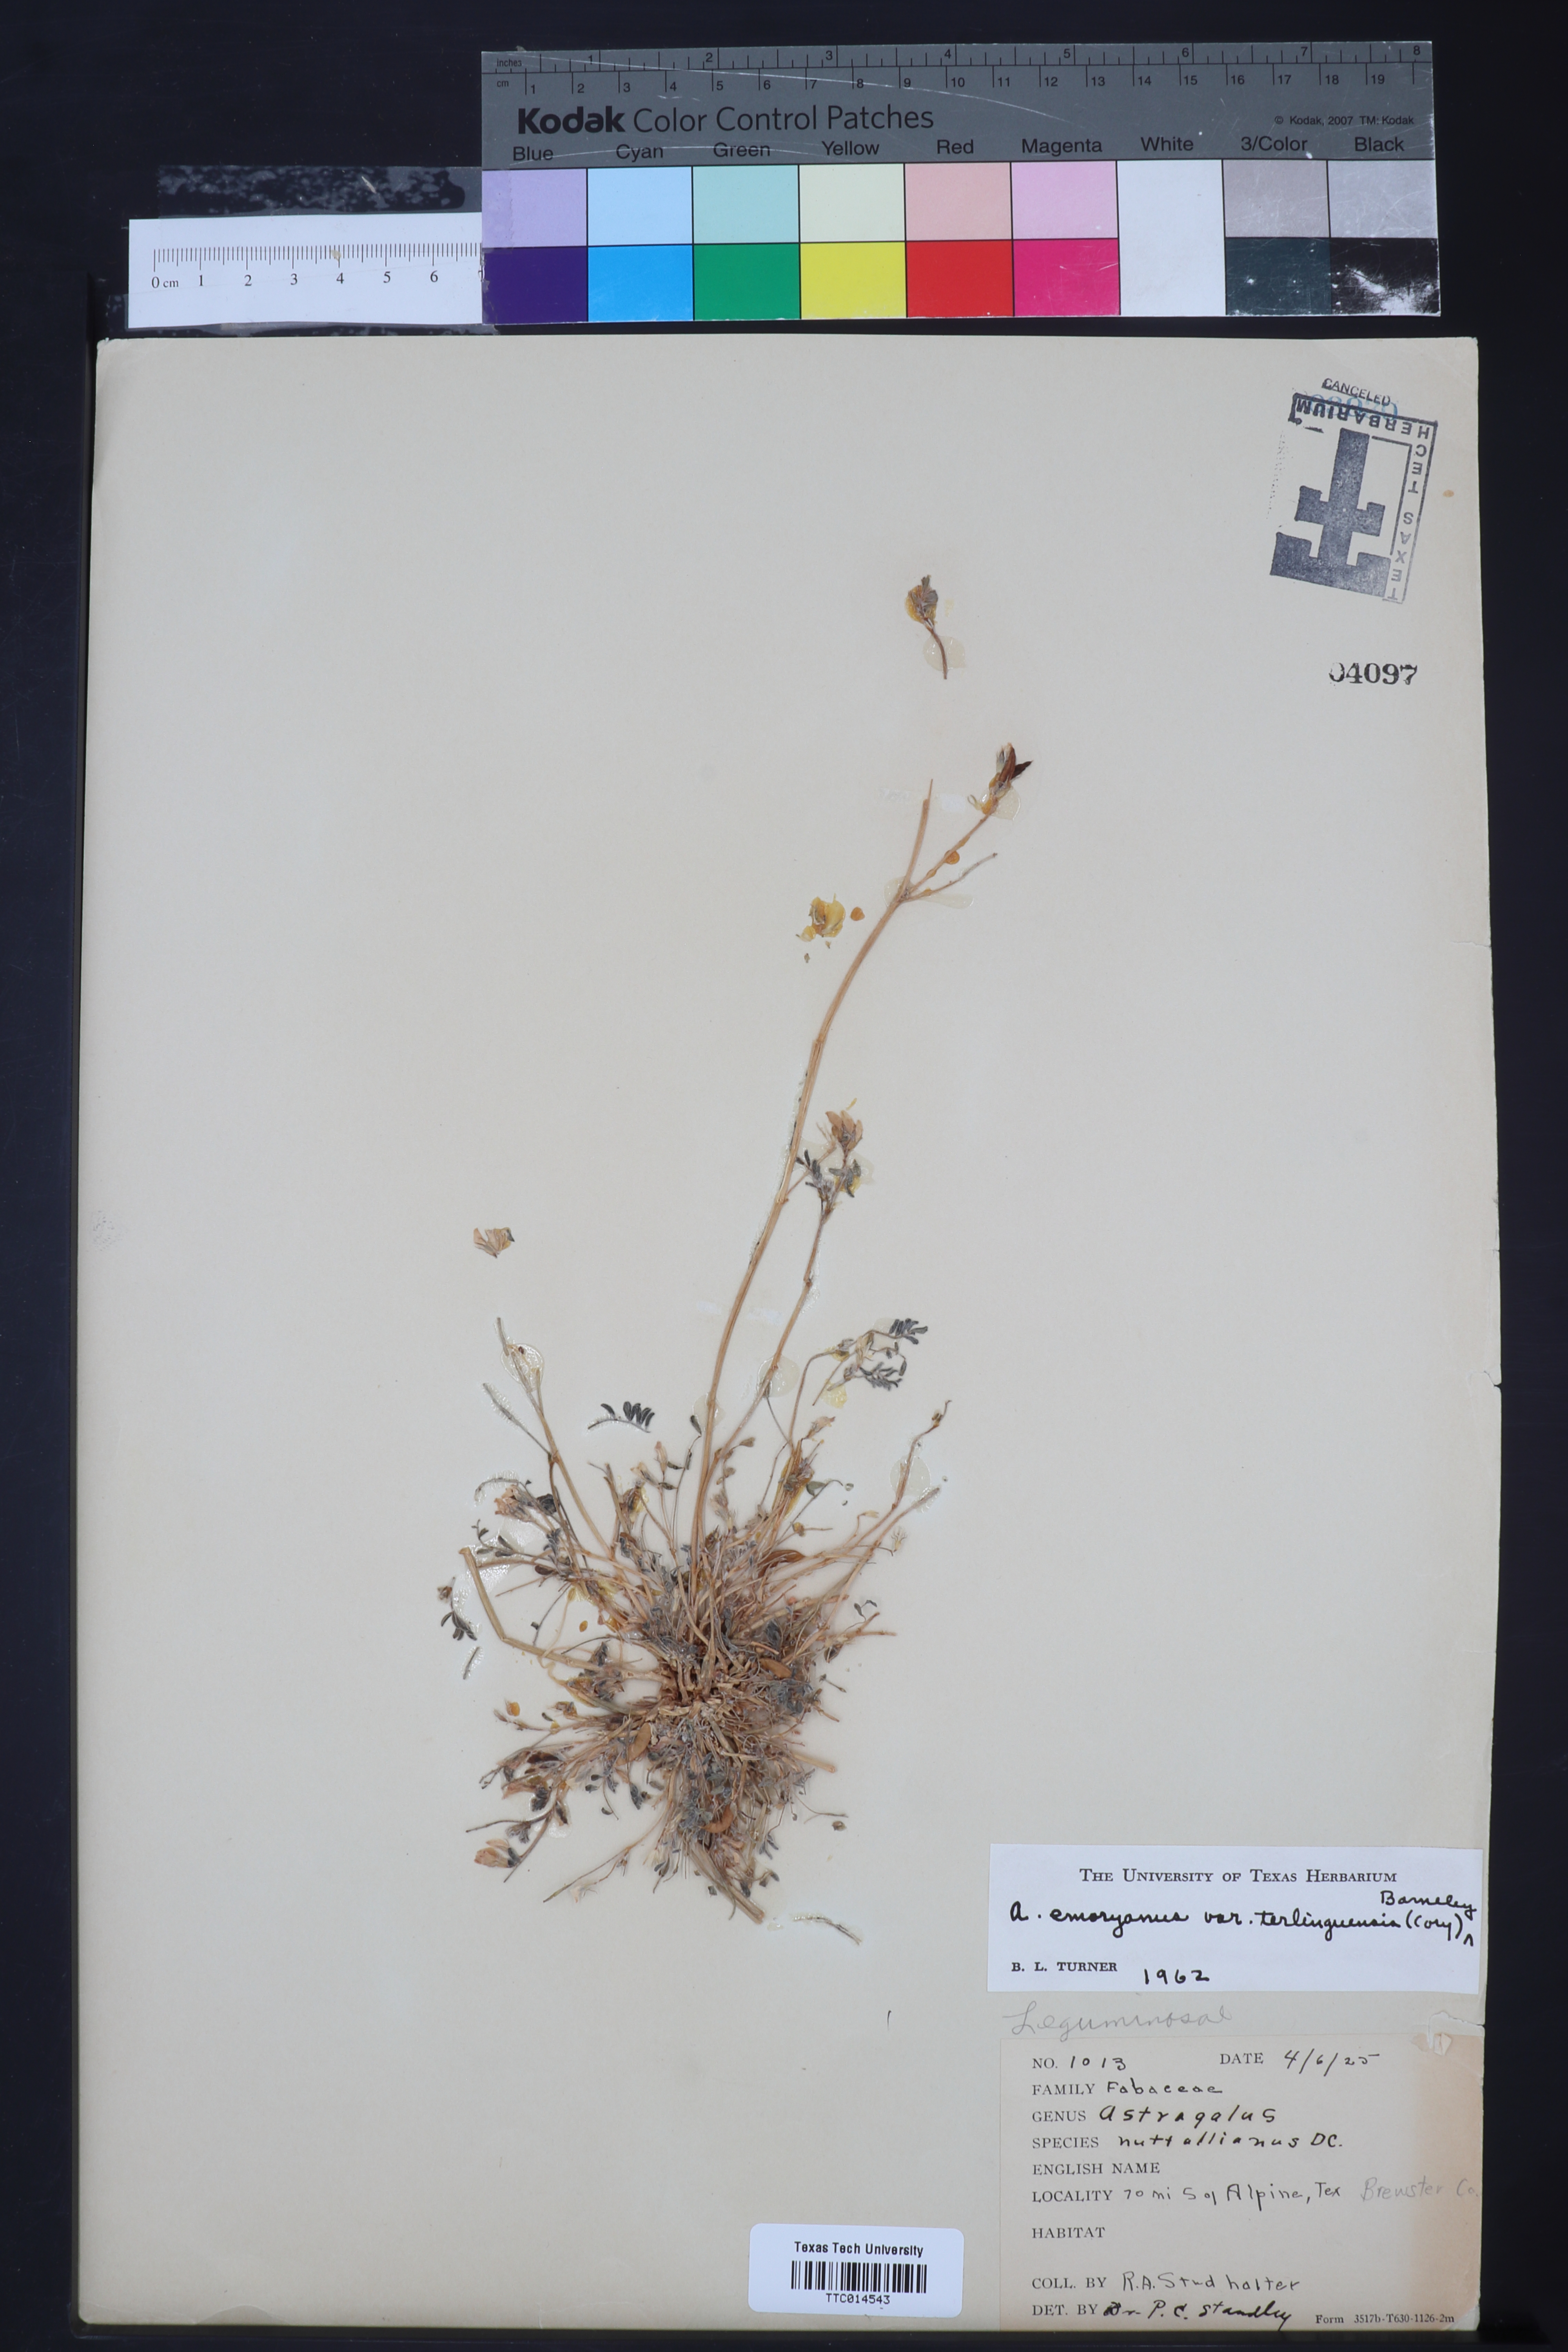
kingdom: Plantae
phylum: Tracheophyta
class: Magnoliopsida
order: Fabales
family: Fabaceae
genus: Astragalus
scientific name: Astragalus emoryanus
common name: Emory's milk-vetch
